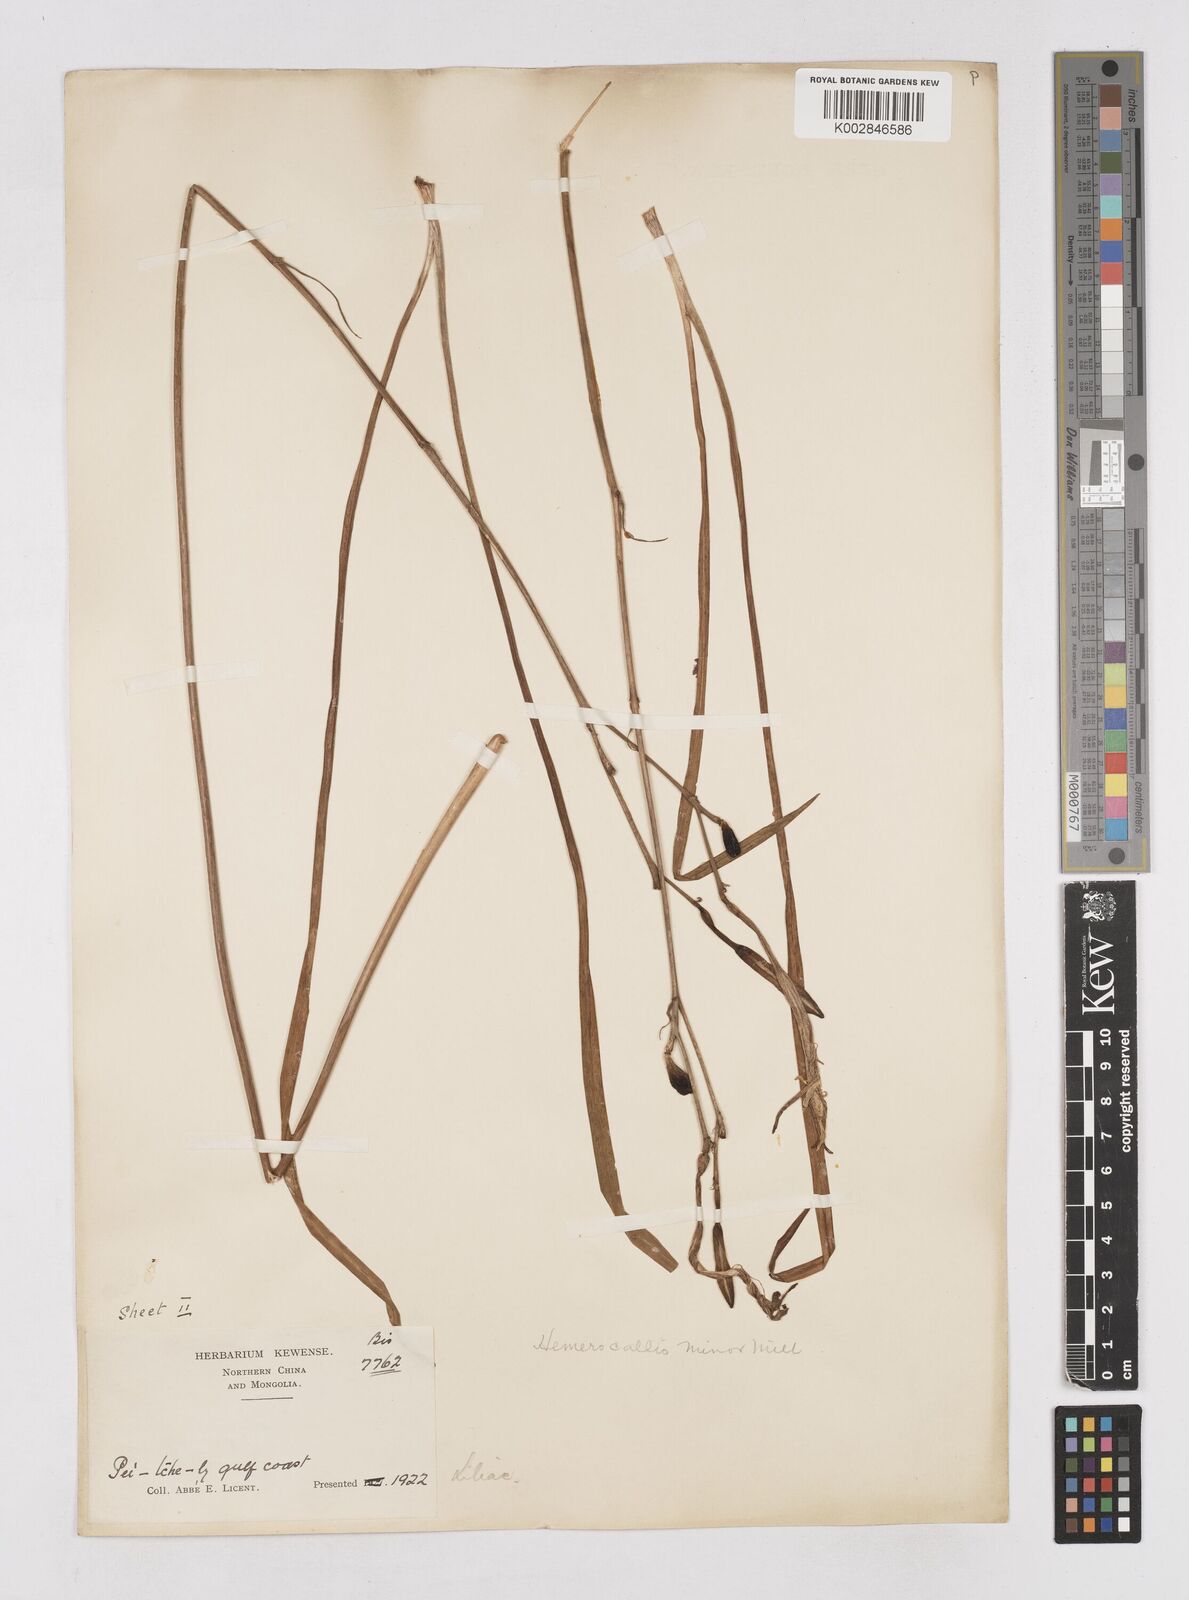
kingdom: Plantae
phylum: Tracheophyta
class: Liliopsida
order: Asparagales
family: Asphodelaceae
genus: Hemerocallis
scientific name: Hemerocallis minor
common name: Small daylily
